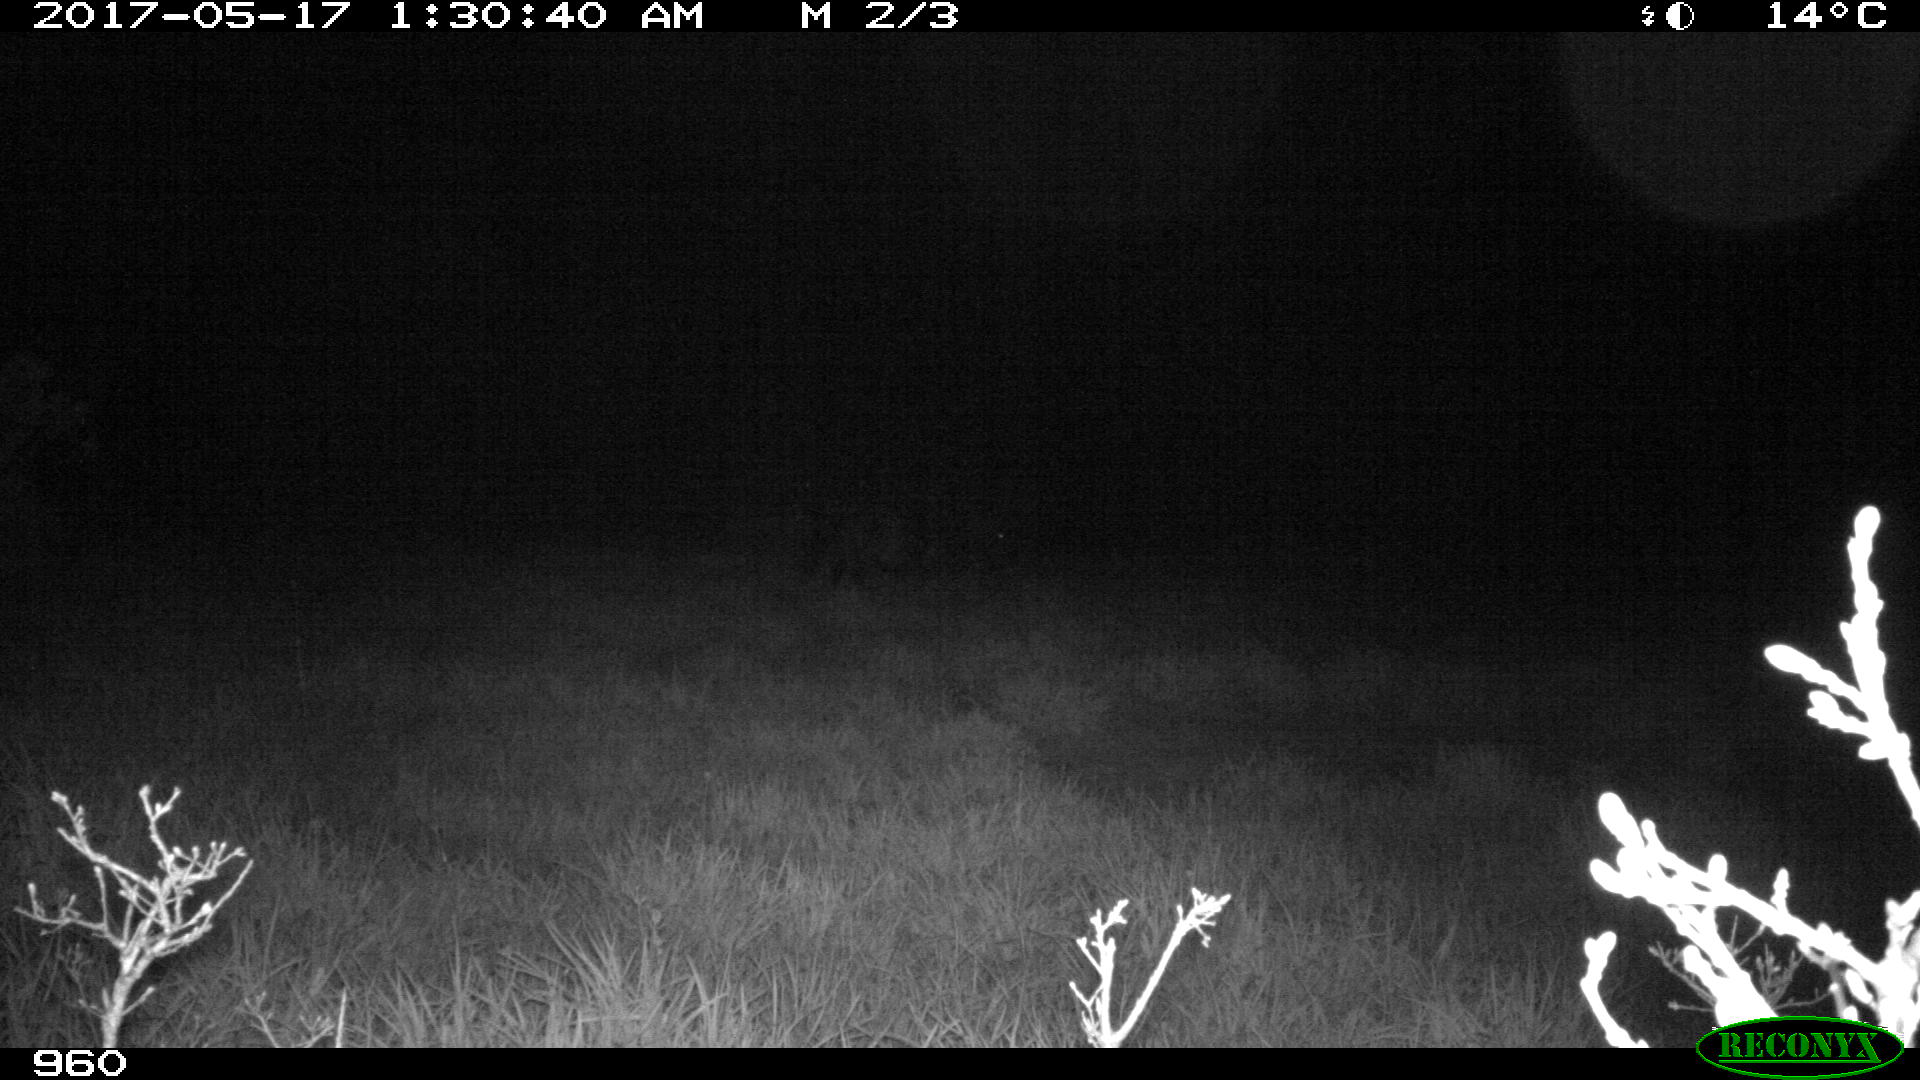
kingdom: Animalia
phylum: Chordata
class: Mammalia
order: Perissodactyla
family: Equidae
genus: Equus
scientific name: Equus caballus
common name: Horse
